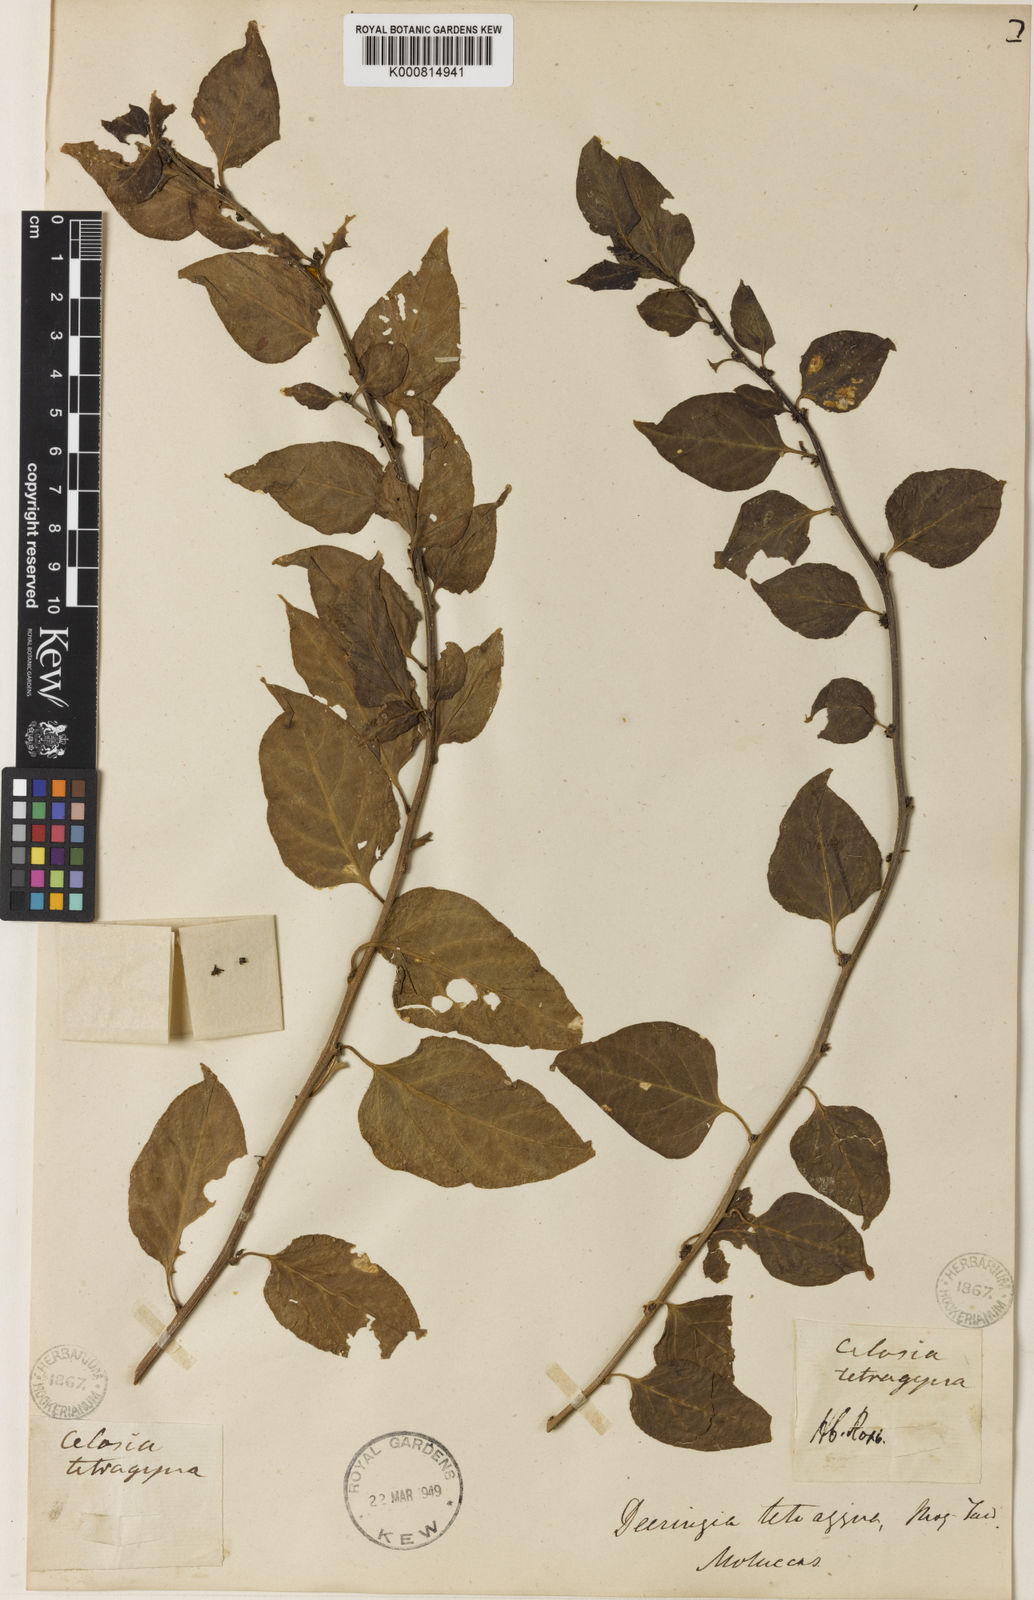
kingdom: Plantae
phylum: Tracheophyta
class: Magnoliopsida
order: Caryophyllales
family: Amaranthaceae
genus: Deeringia
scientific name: Deeringia tetragyna
